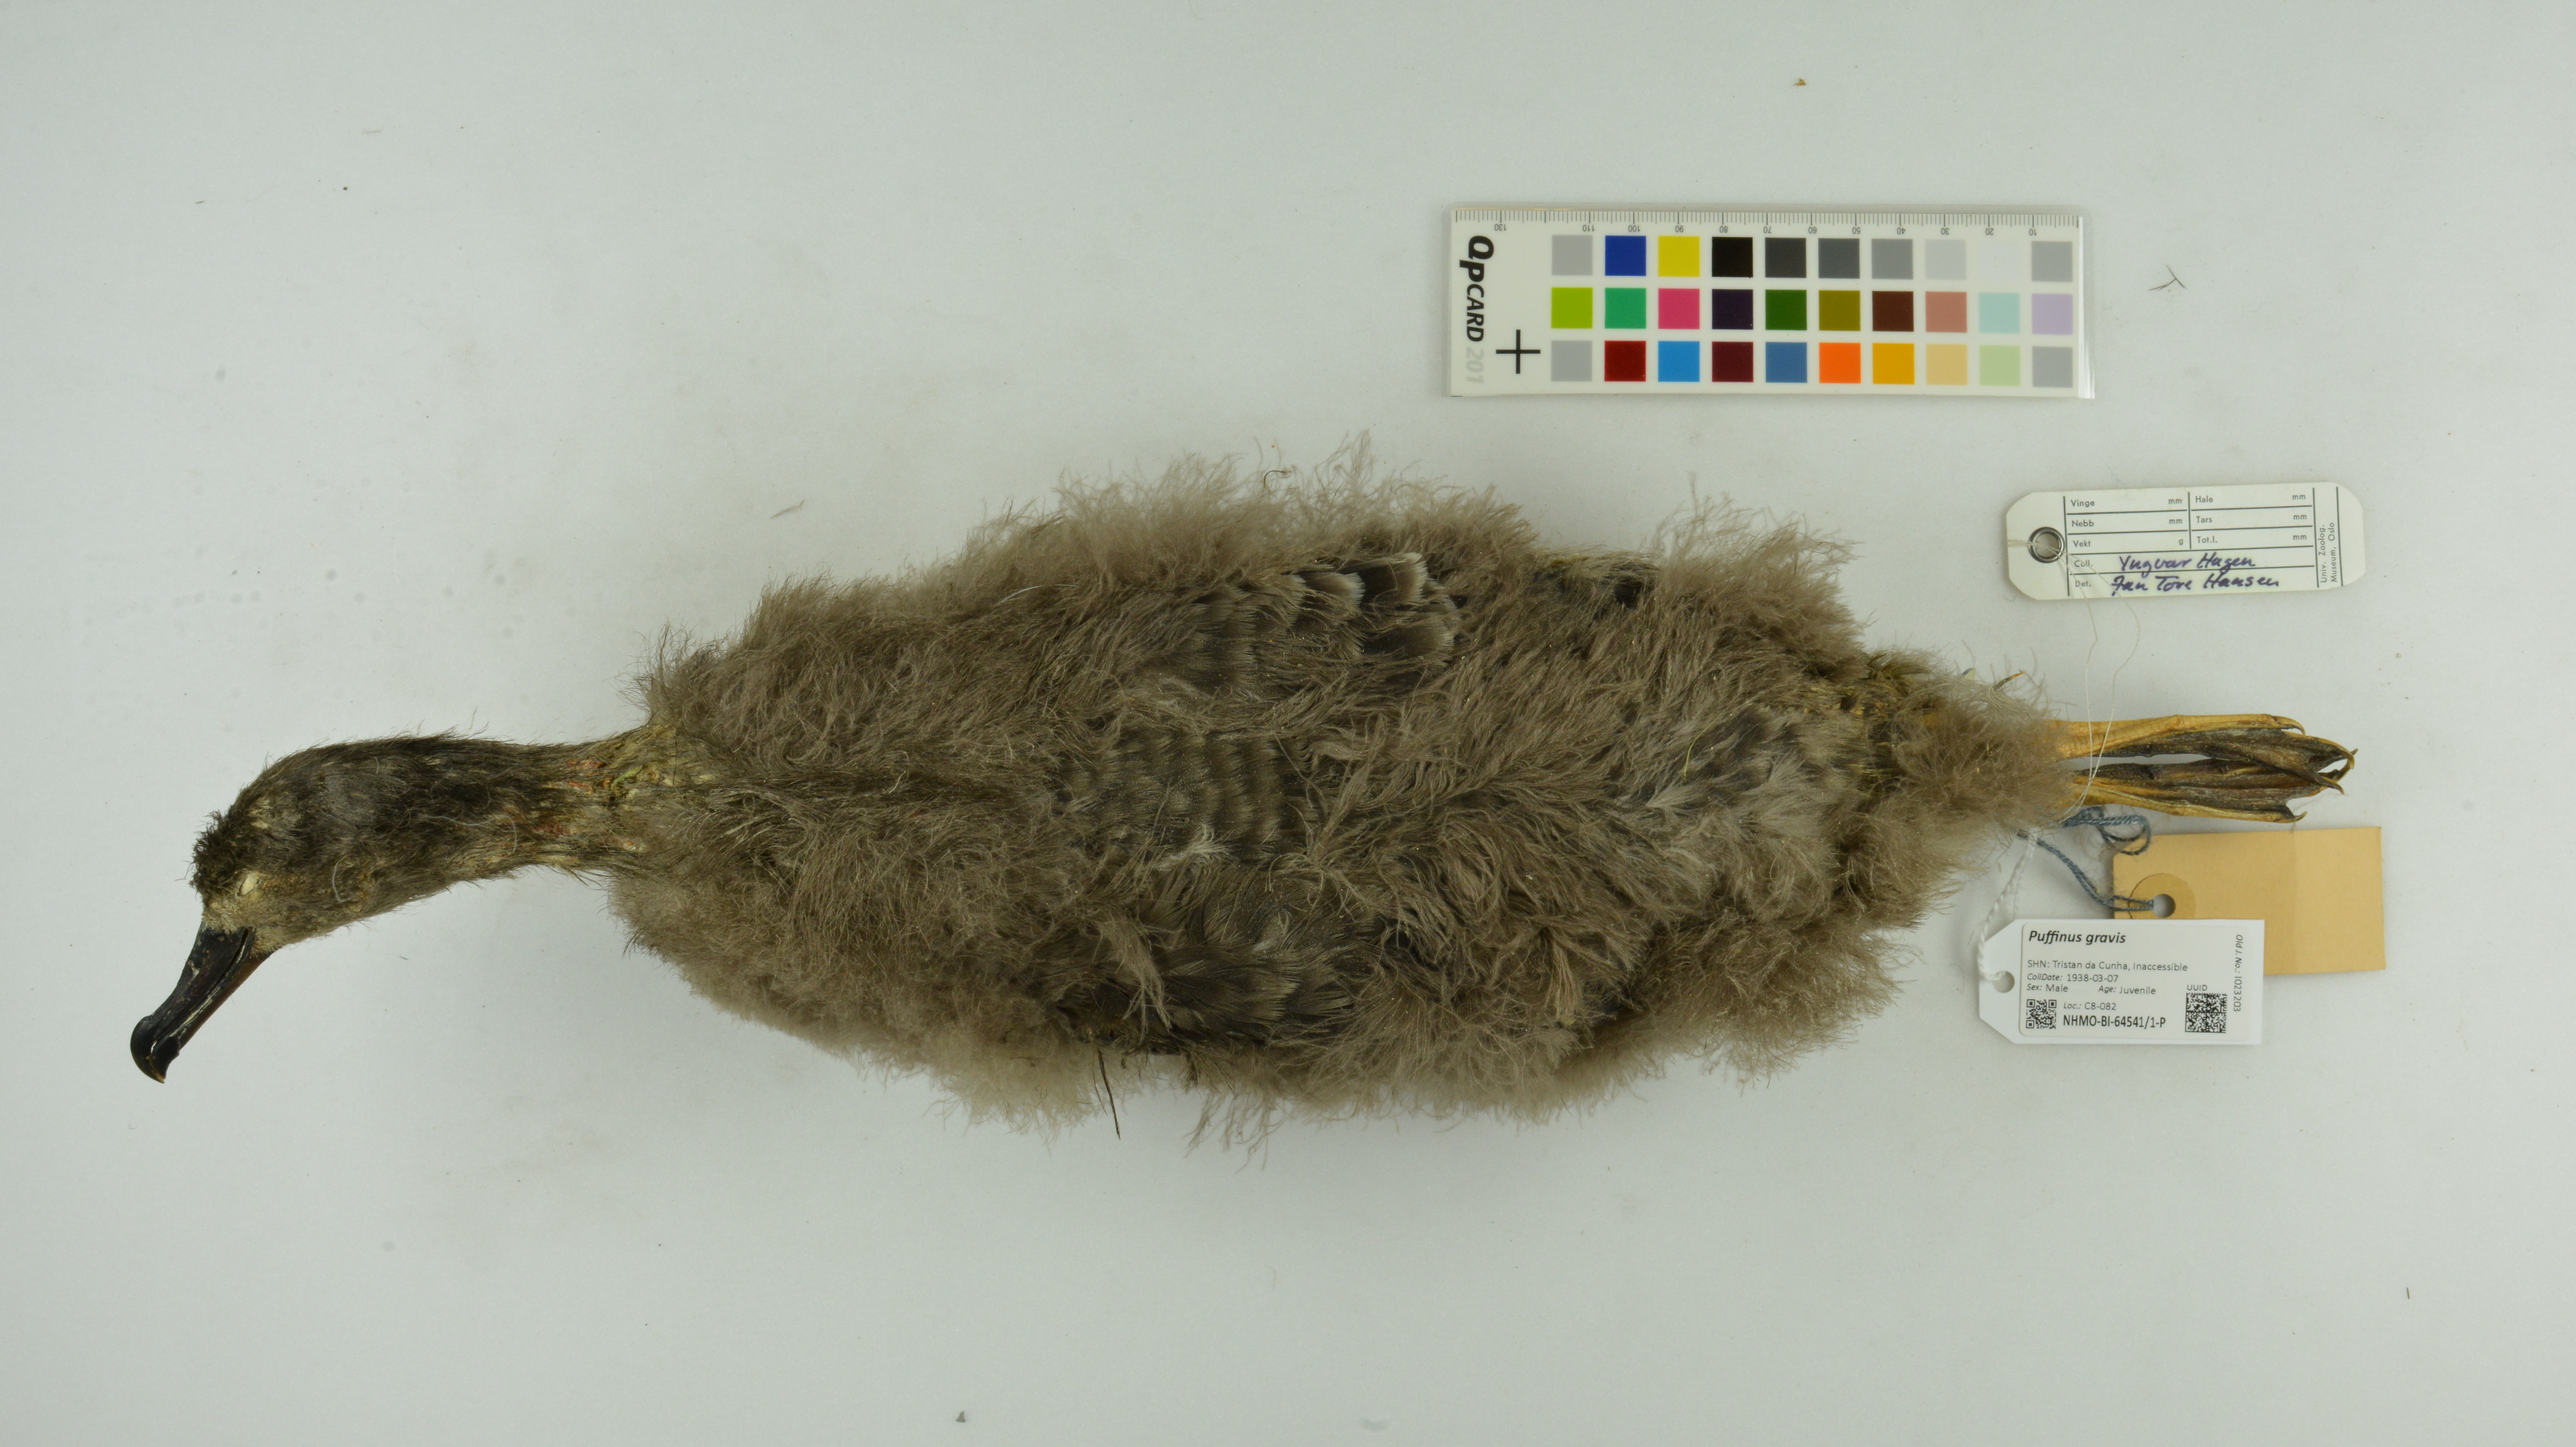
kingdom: Animalia
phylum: Chordata
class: Aves
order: Procellariiformes
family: Procellariidae
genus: Puffinus
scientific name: Puffinus gravis
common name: Great shearwater
